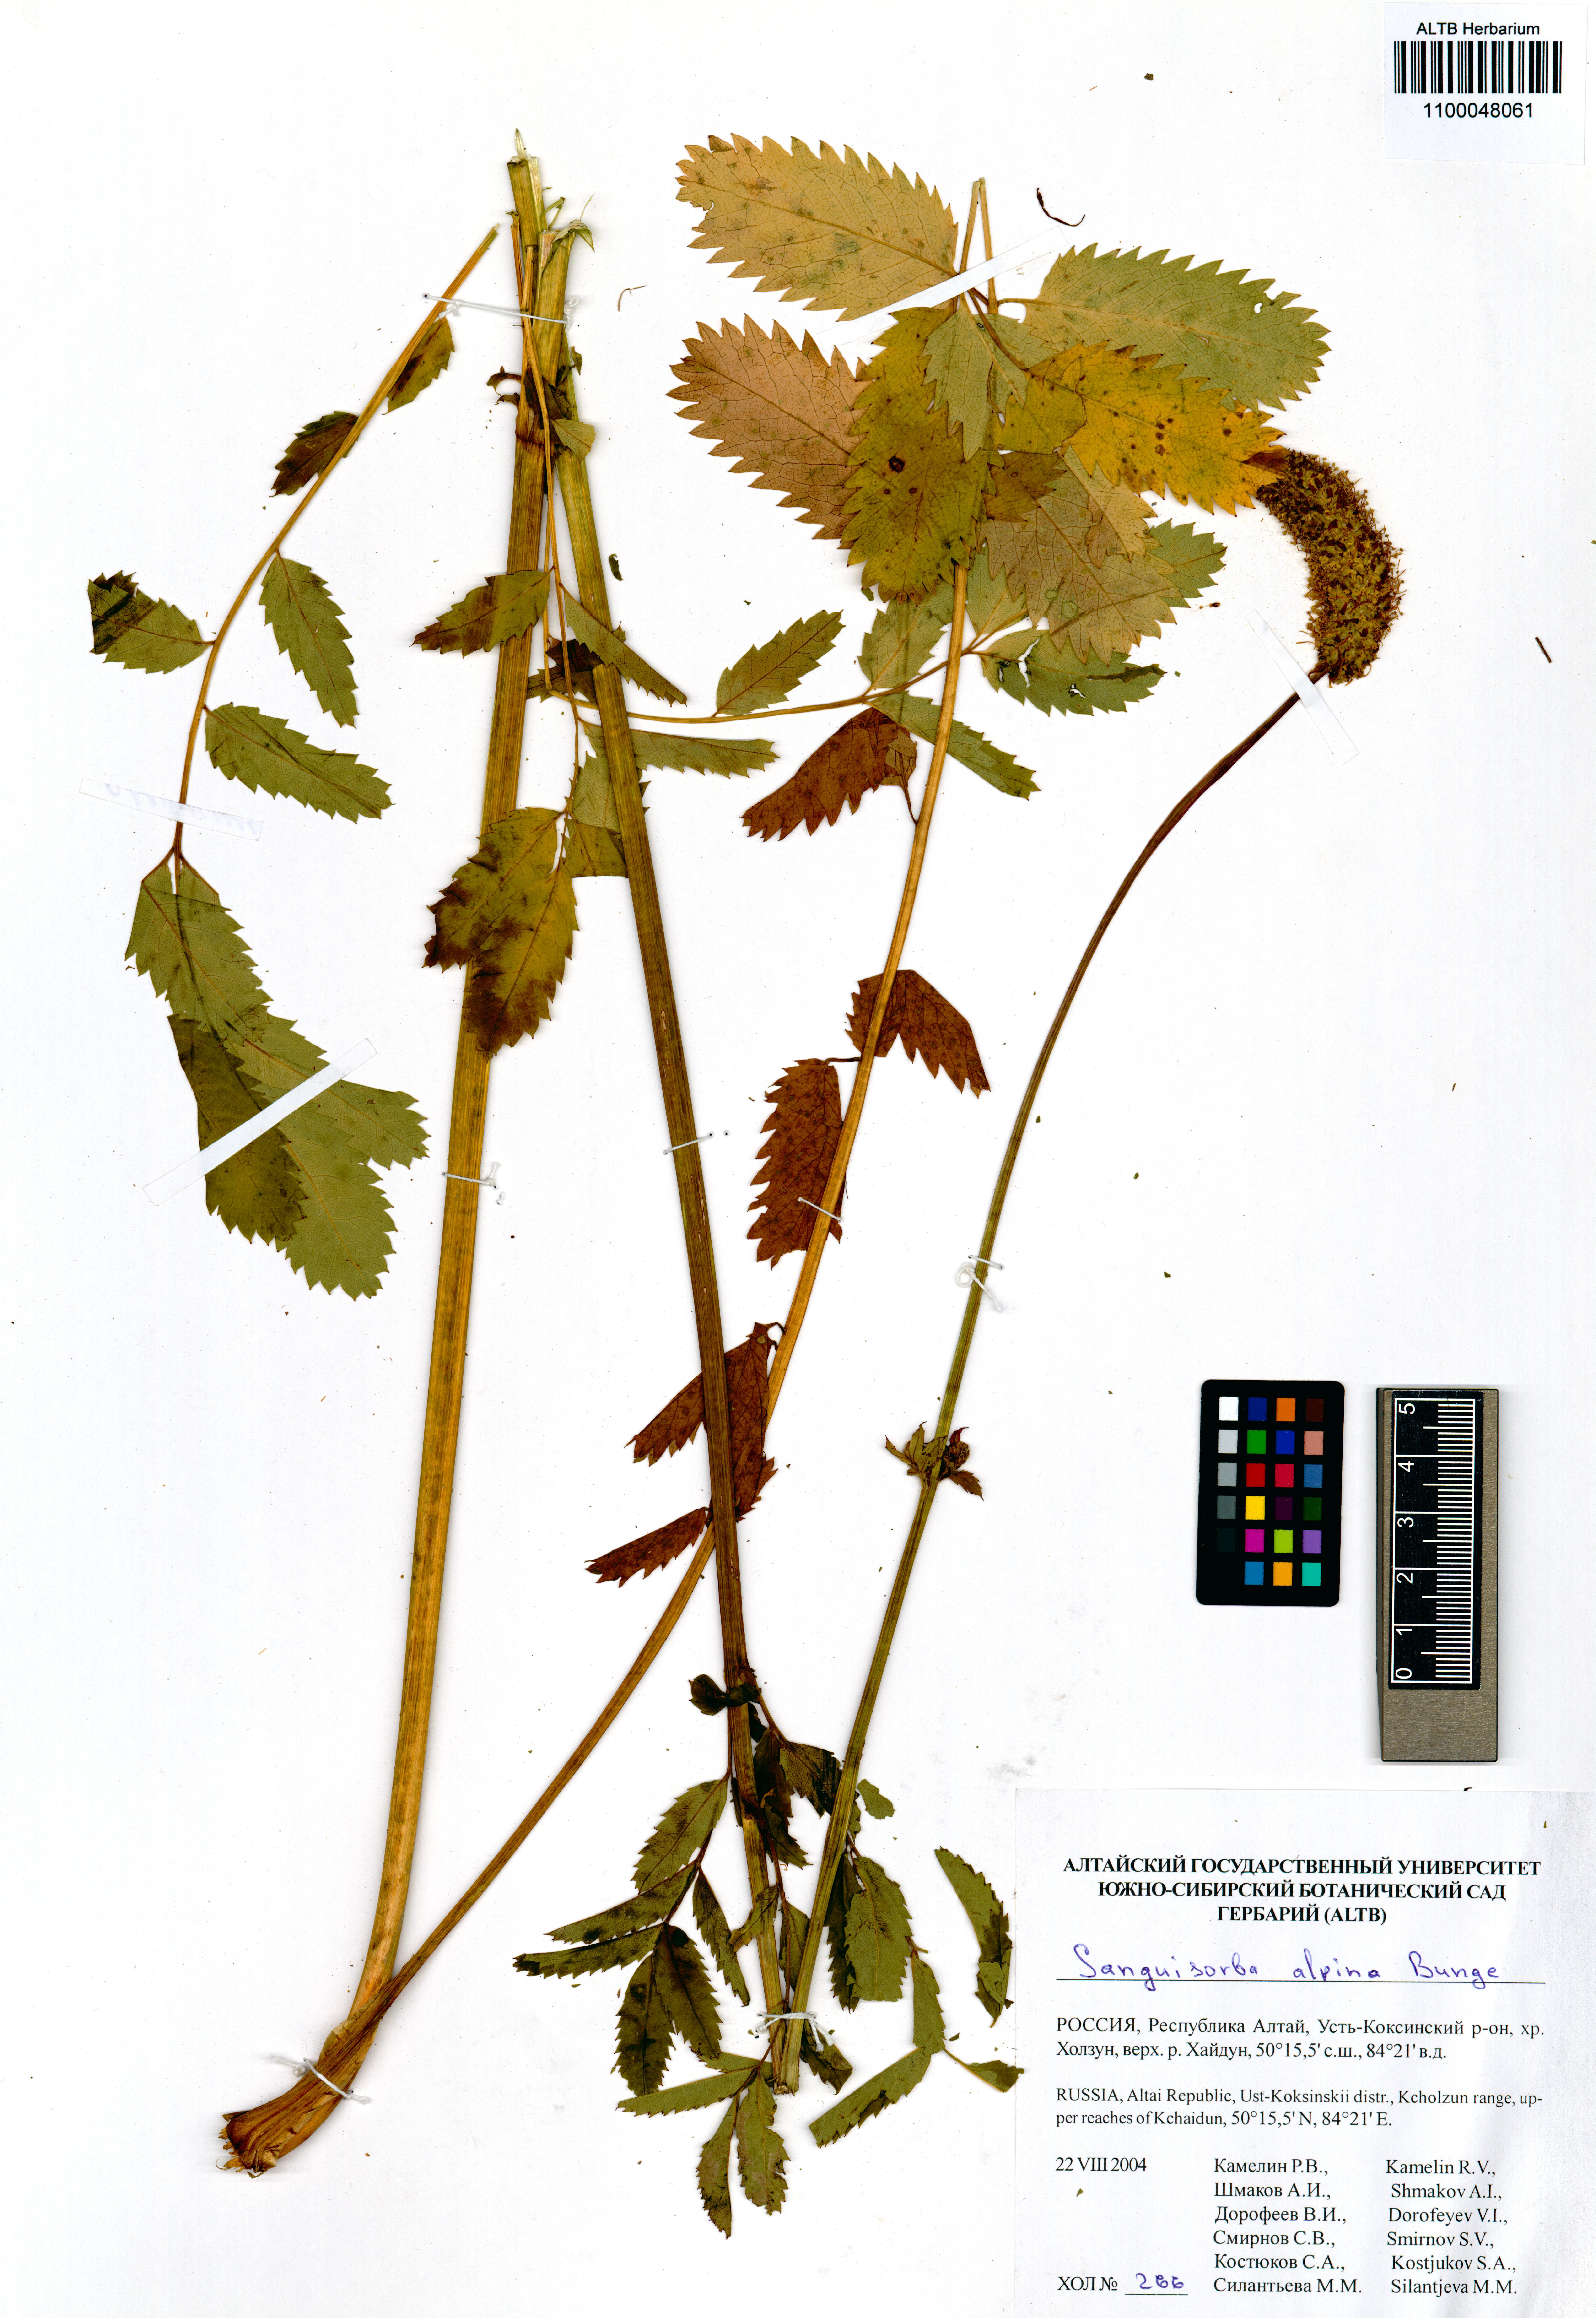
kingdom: Plantae
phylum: Tracheophyta
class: Magnoliopsida
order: Rosales
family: Rosaceae
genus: Sanguisorba
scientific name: Sanguisorba alpina
